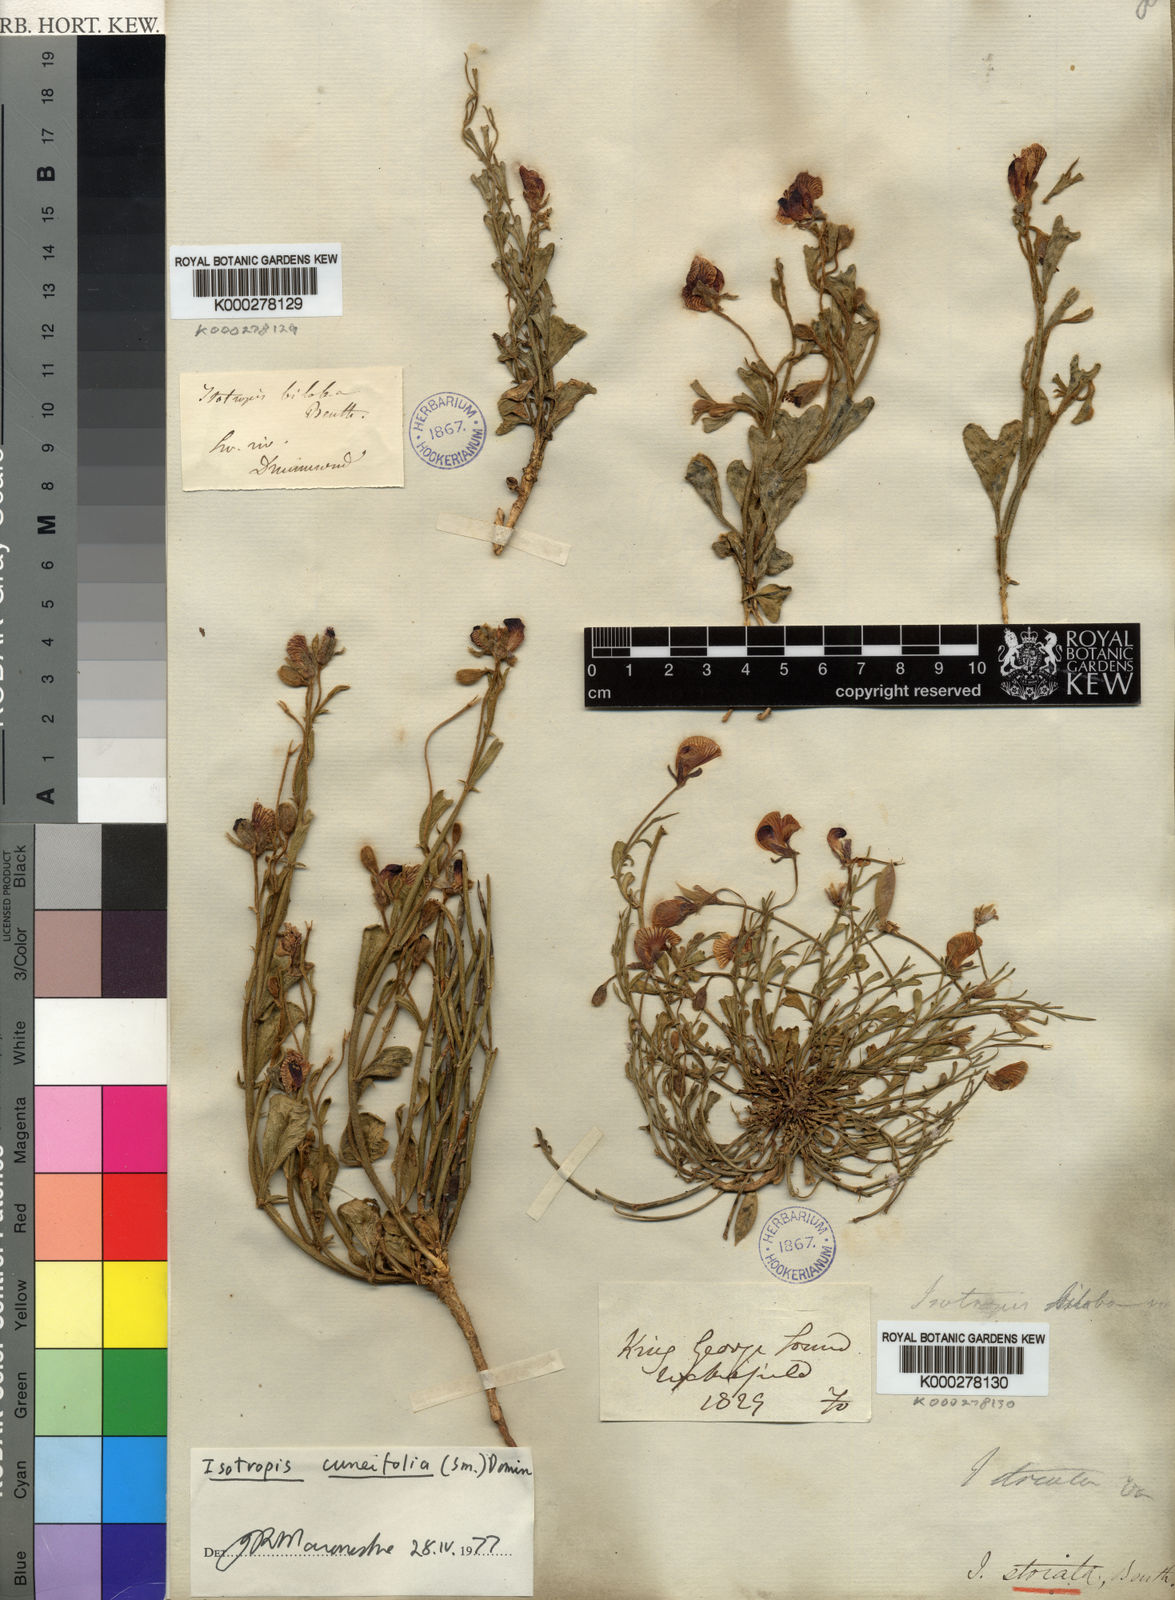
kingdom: Plantae
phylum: Tracheophyta
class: Magnoliopsida
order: Fabales
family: Fabaceae
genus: Isotropis
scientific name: Isotropis cuneifolia
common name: Granny bonnets
